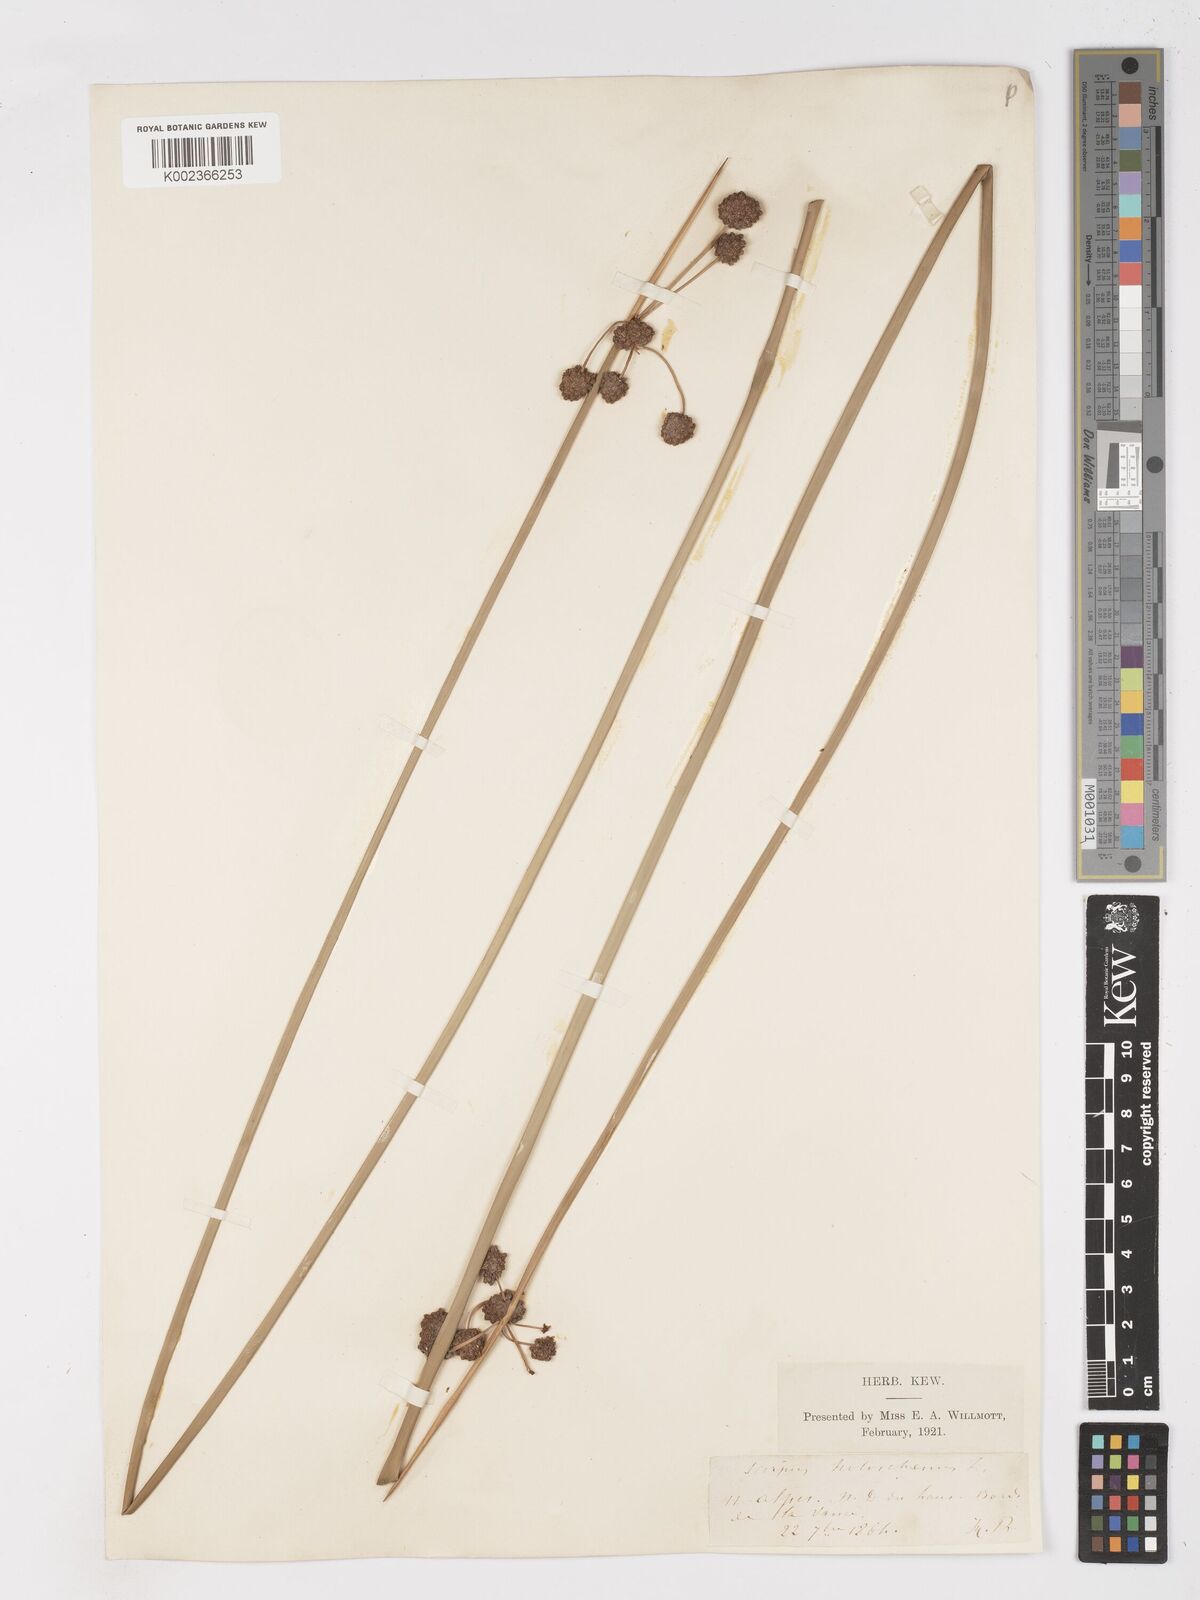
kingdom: Plantae
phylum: Tracheophyta
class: Liliopsida
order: Poales
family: Cyperaceae
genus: Scirpoides
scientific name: Scirpoides holoschoenus
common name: Round-headed club-rush
